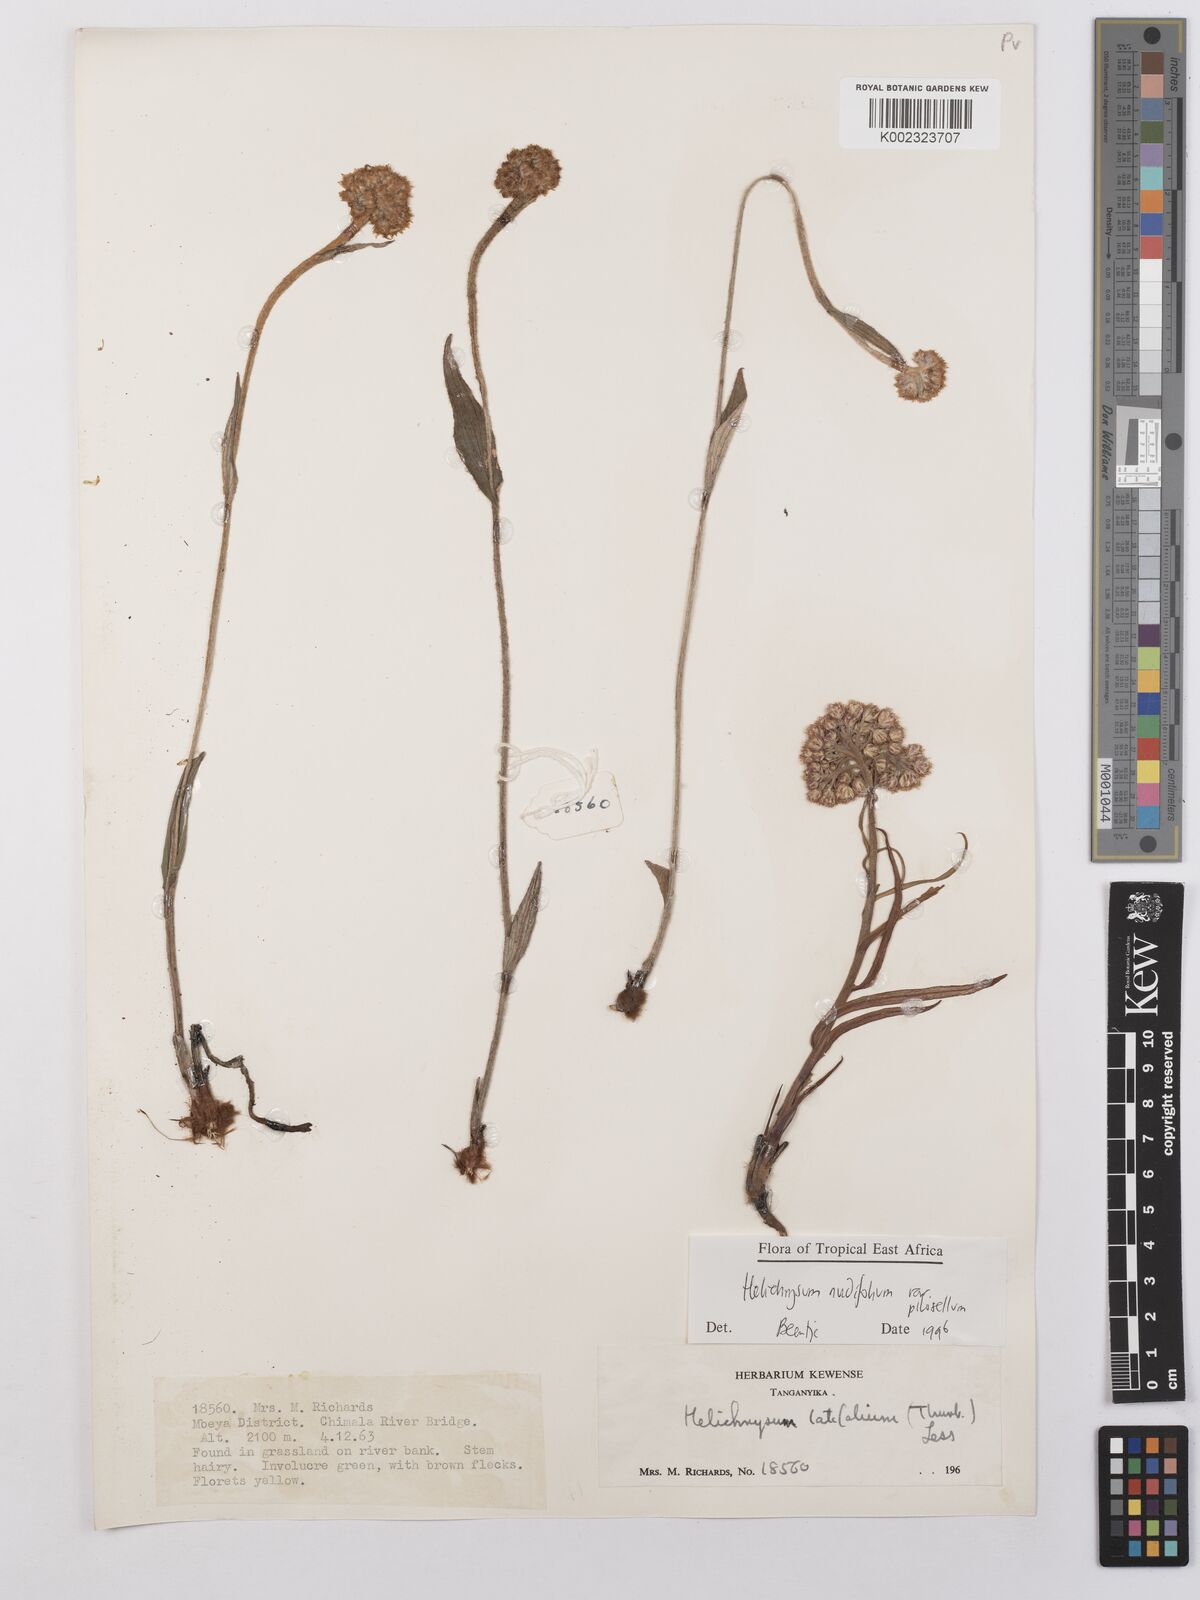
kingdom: Plantae
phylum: Tracheophyta
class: Magnoliopsida
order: Asterales
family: Asteraceae
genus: Helichrysum
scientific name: Helichrysum nudifolium
